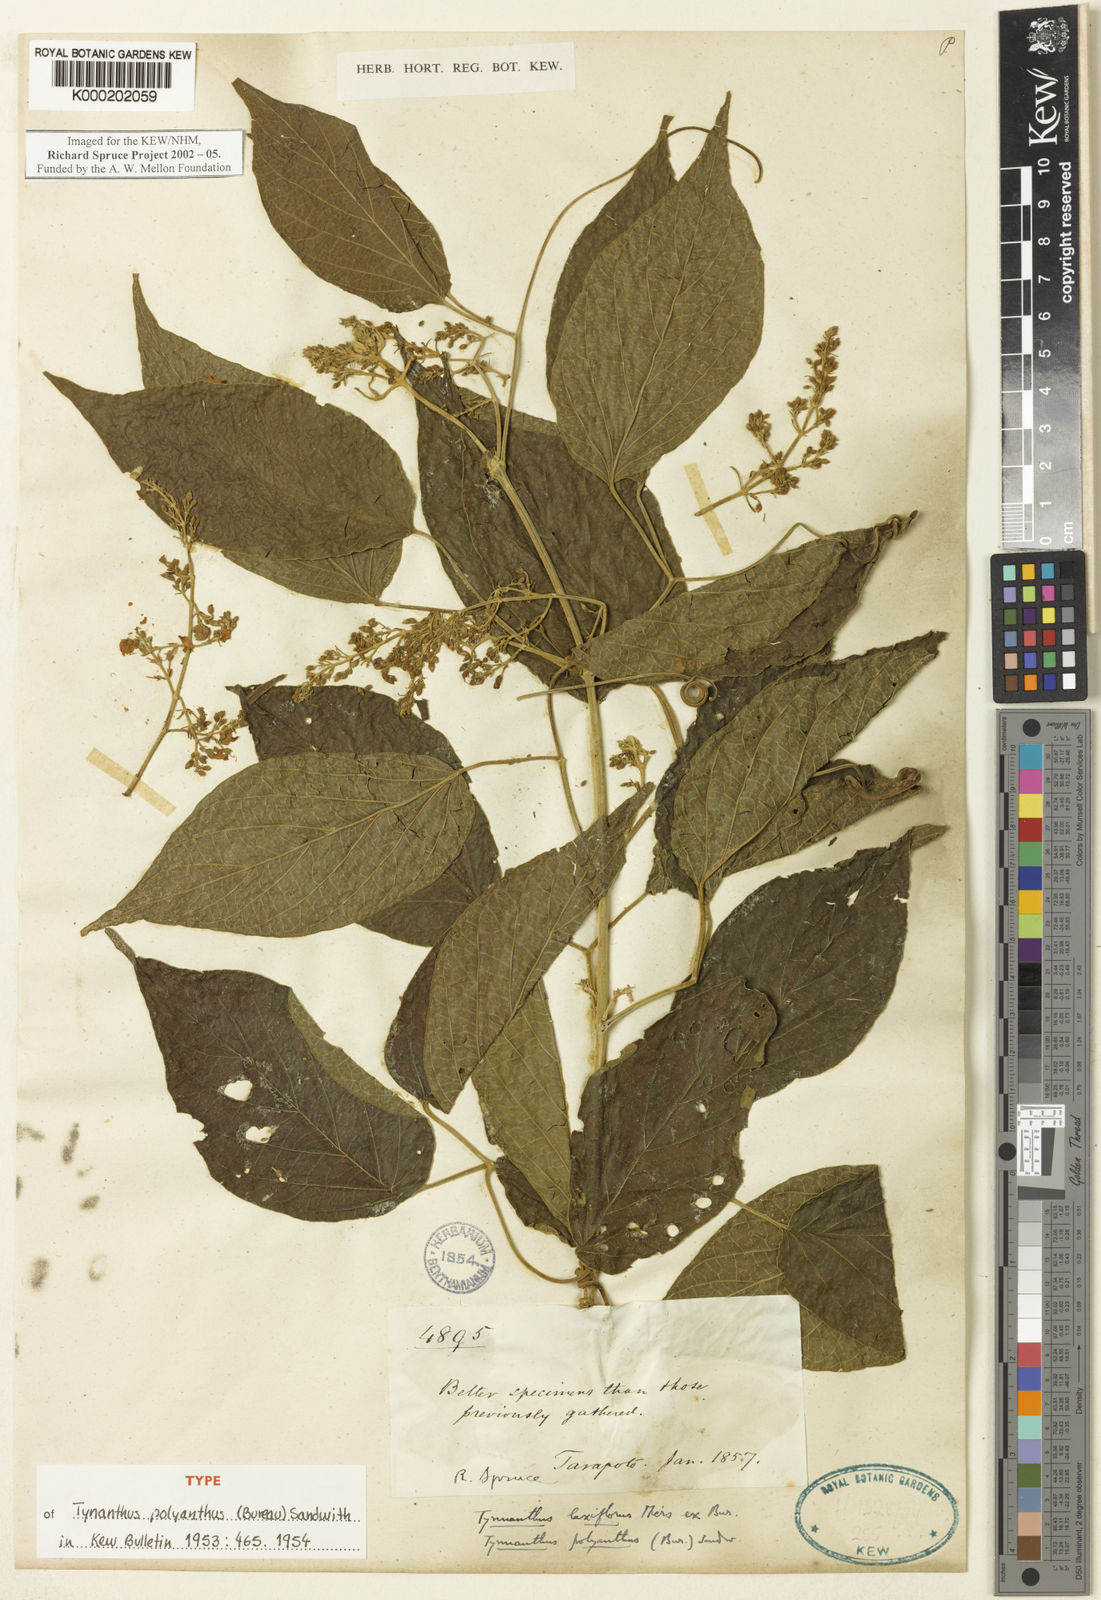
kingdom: Plantae
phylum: Tracheophyta
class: Magnoliopsida
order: Lamiales
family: Bignoniaceae
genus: Tynanthus
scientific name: Tynanthus polyanthus
